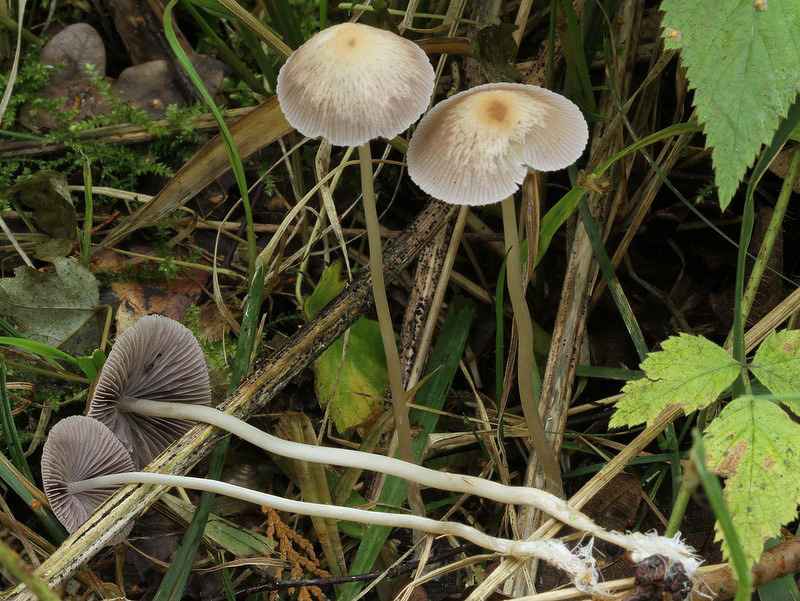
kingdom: Fungi
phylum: Basidiomycota
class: Agaricomycetes
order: Agaricales
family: Psathyrellaceae
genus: Psathyrella
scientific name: Psathyrella corrugis
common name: rødægget mørkhat
